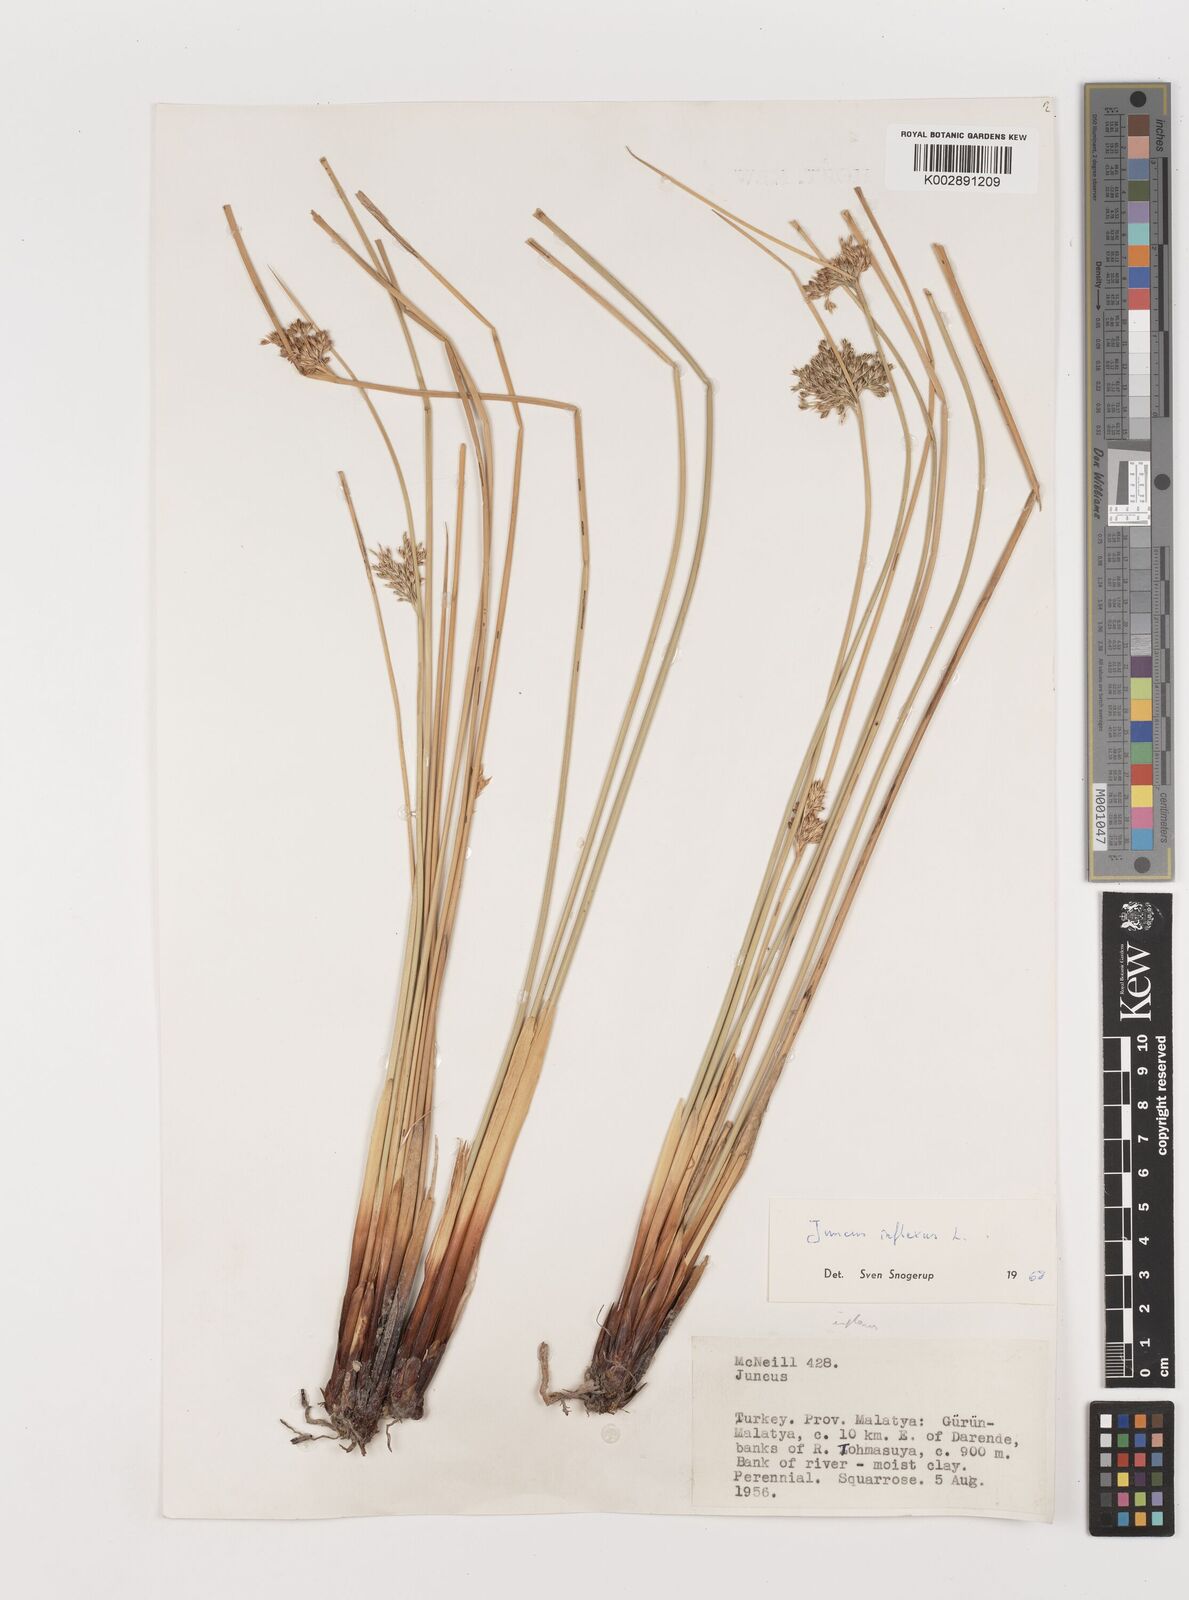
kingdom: Plantae
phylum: Tracheophyta
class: Liliopsida
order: Poales
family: Juncaceae
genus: Juncus
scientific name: Juncus inflexus
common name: Hard rush
